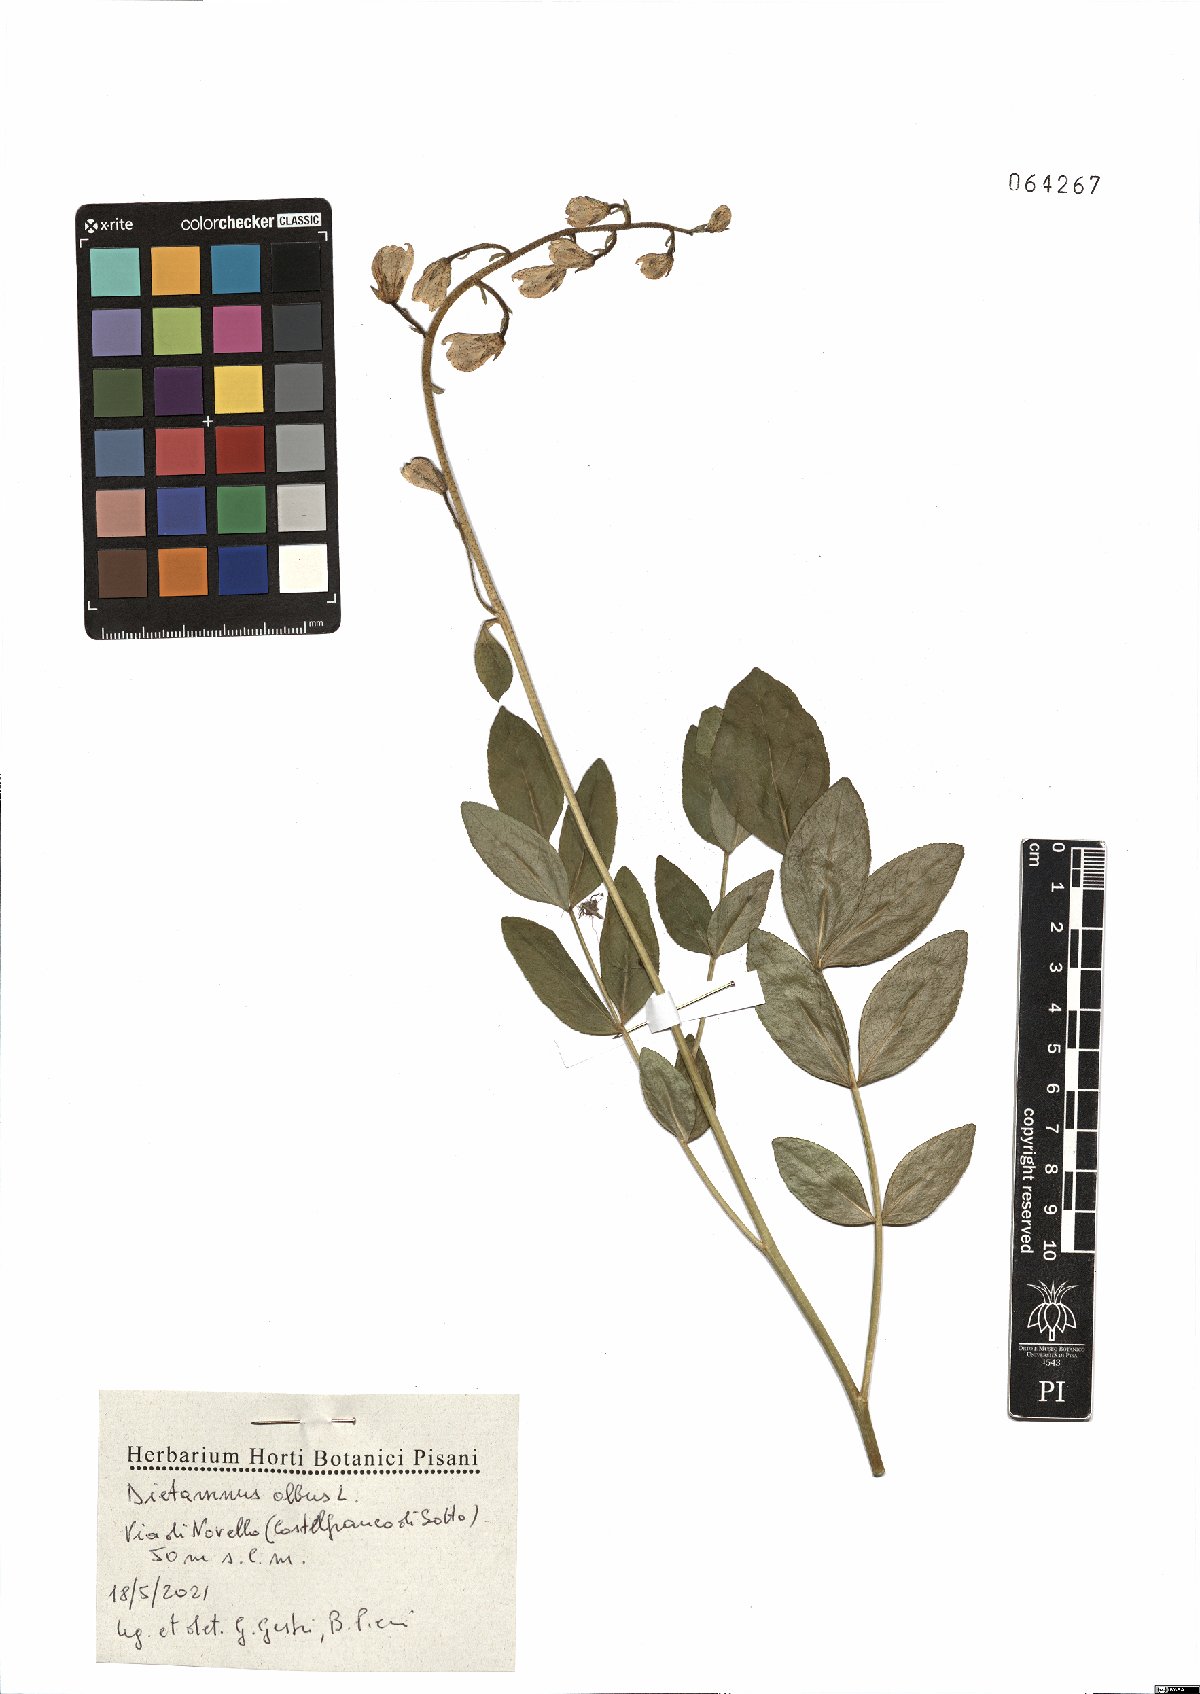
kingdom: Plantae
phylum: Tracheophyta
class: Magnoliopsida
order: Sapindales
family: Rutaceae
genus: Dictamnus
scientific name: Dictamnus albus
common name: Gasplant
